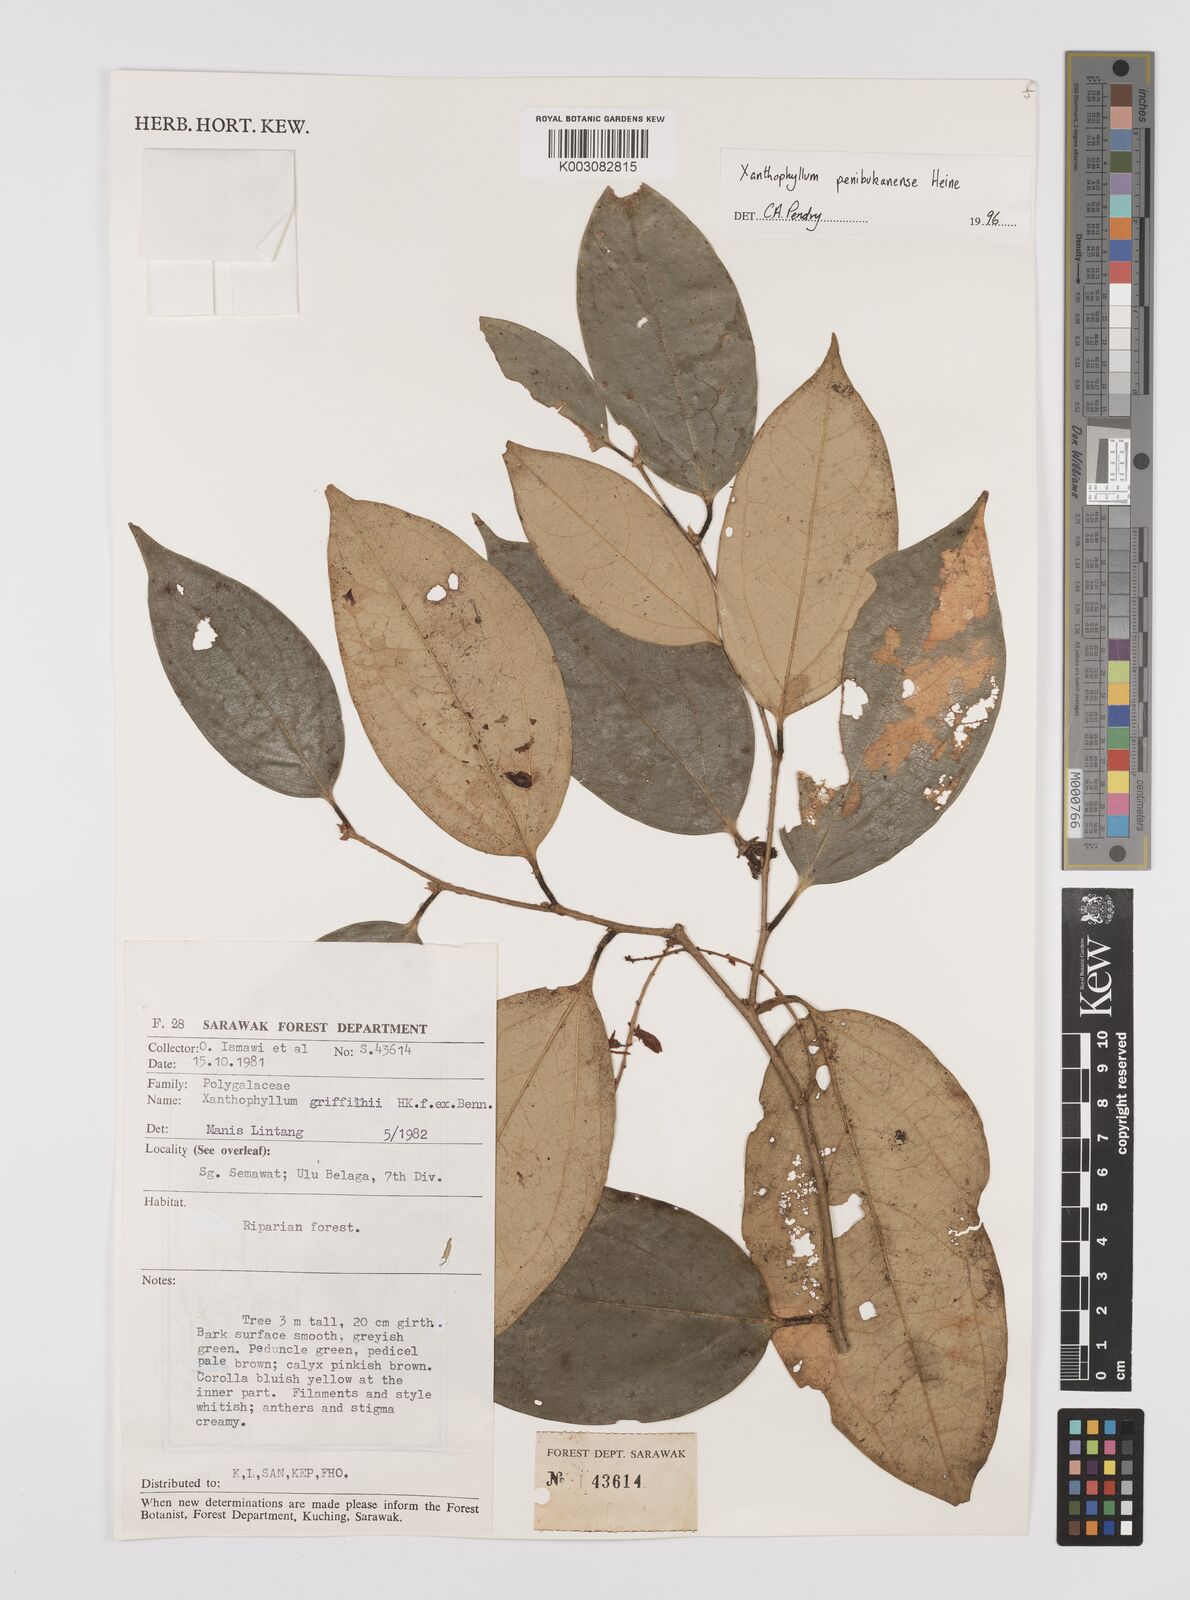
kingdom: Plantae
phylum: Tracheophyta
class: Magnoliopsida
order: Fabales
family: Polygalaceae
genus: Xanthophyllum
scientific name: Xanthophyllum penibukanense
